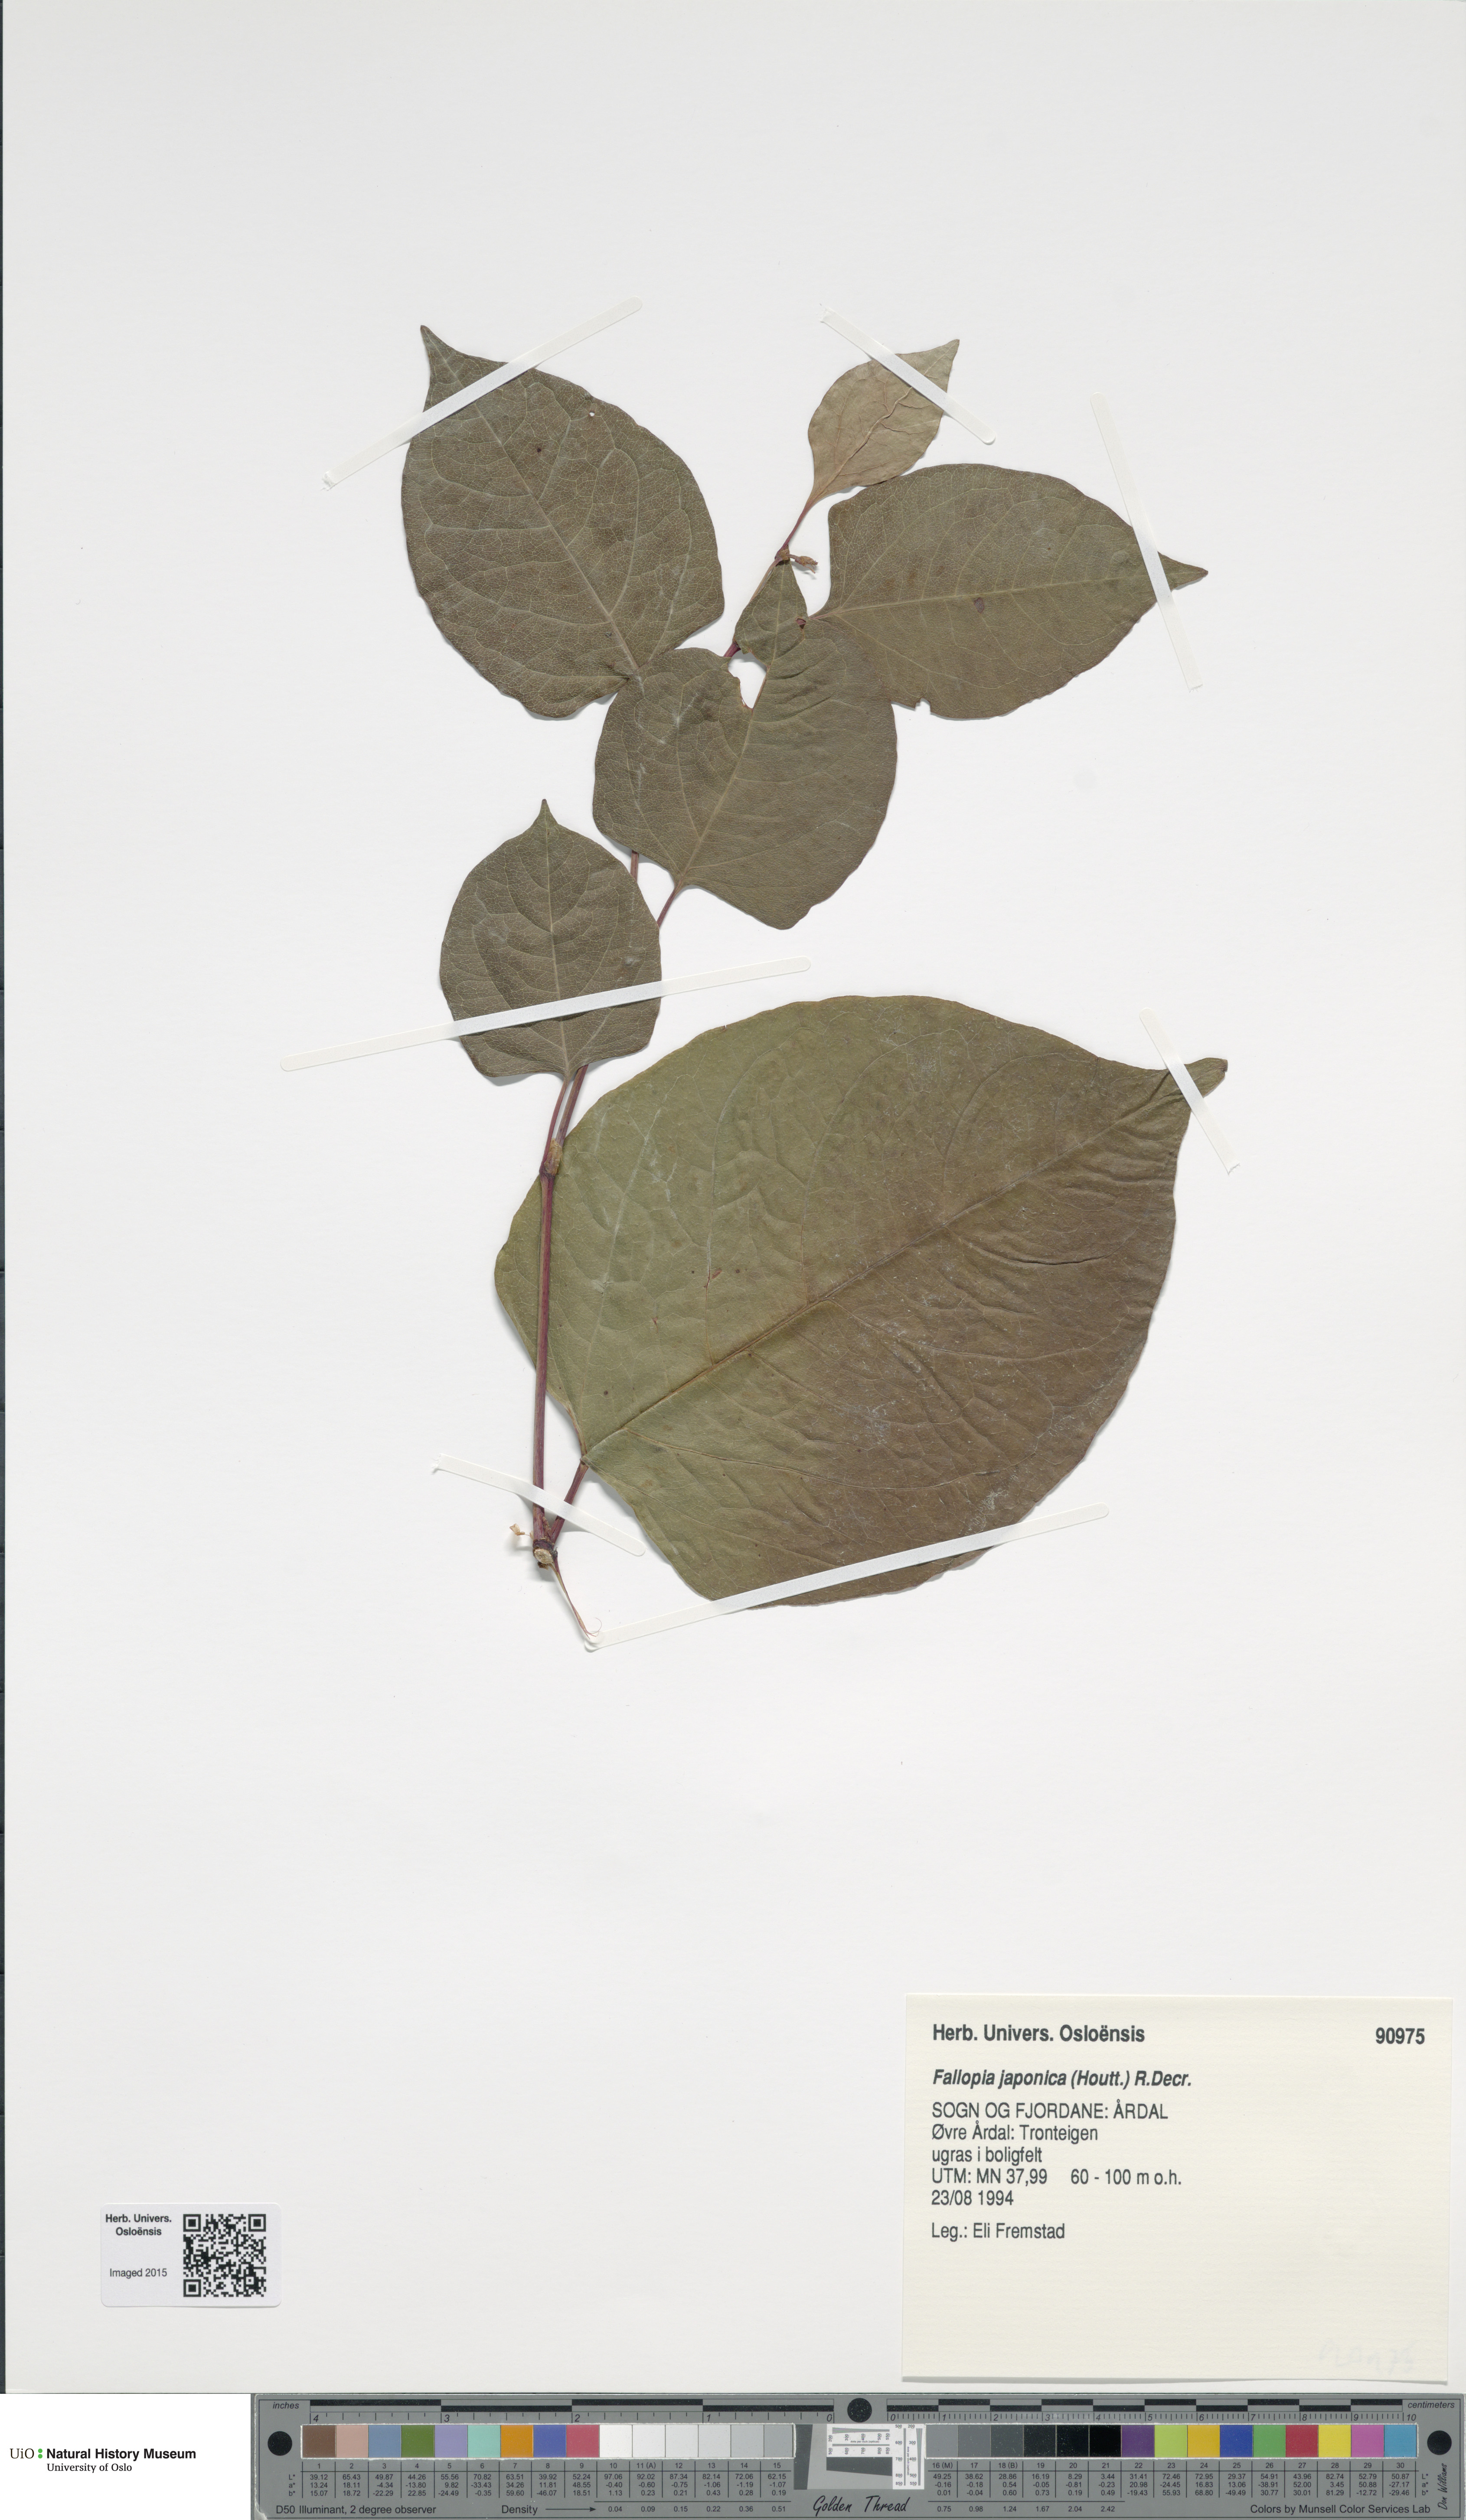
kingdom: Plantae
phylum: Tracheophyta
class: Magnoliopsida
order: Caryophyllales
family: Polygonaceae
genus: Reynoutria
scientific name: Reynoutria japonica
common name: Japanese knotweed
